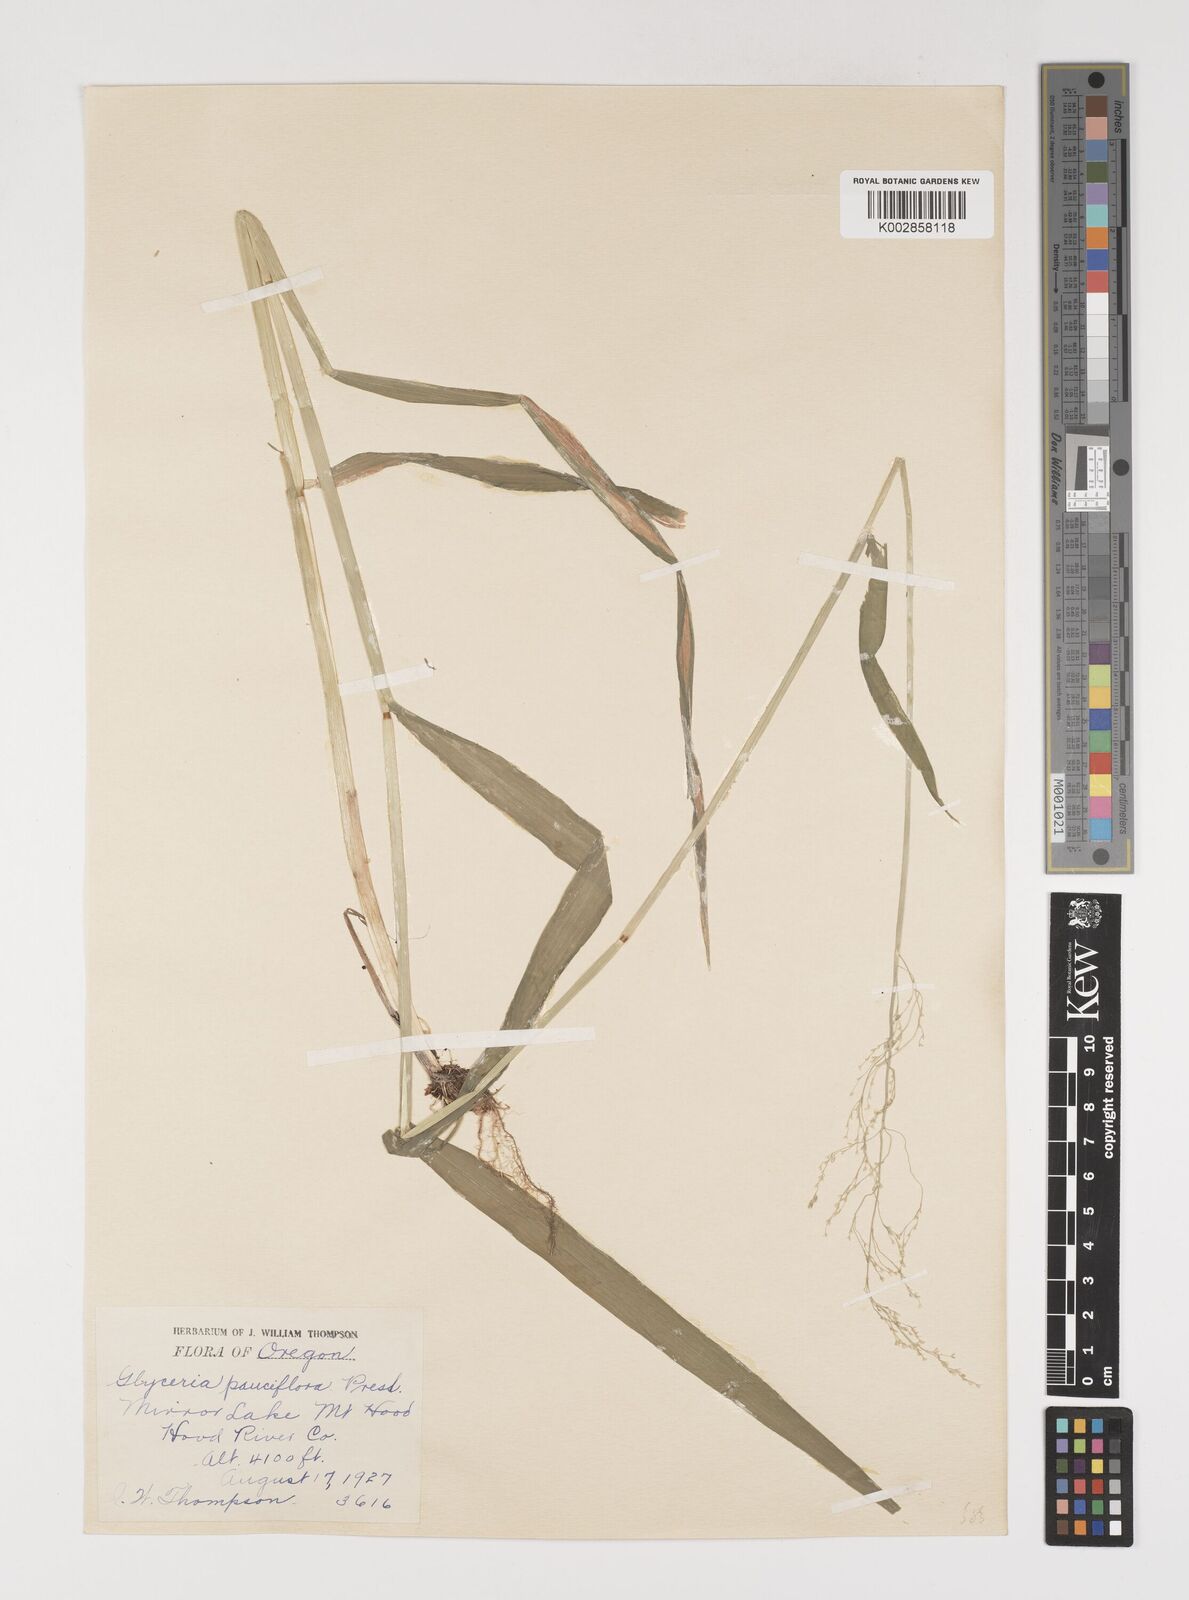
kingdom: Plantae
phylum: Tracheophyta
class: Liliopsida
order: Poales
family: Poaceae
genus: Torreyochloa
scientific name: Torreyochloa pallida
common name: Pale false mannagrass
